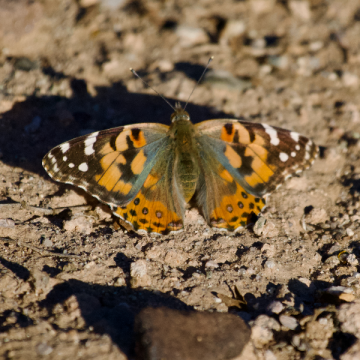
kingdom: Animalia
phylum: Arthropoda
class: Insecta
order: Lepidoptera
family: Nymphalidae
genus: Vanessa
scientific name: Vanessa cardui
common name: Painted Lady
